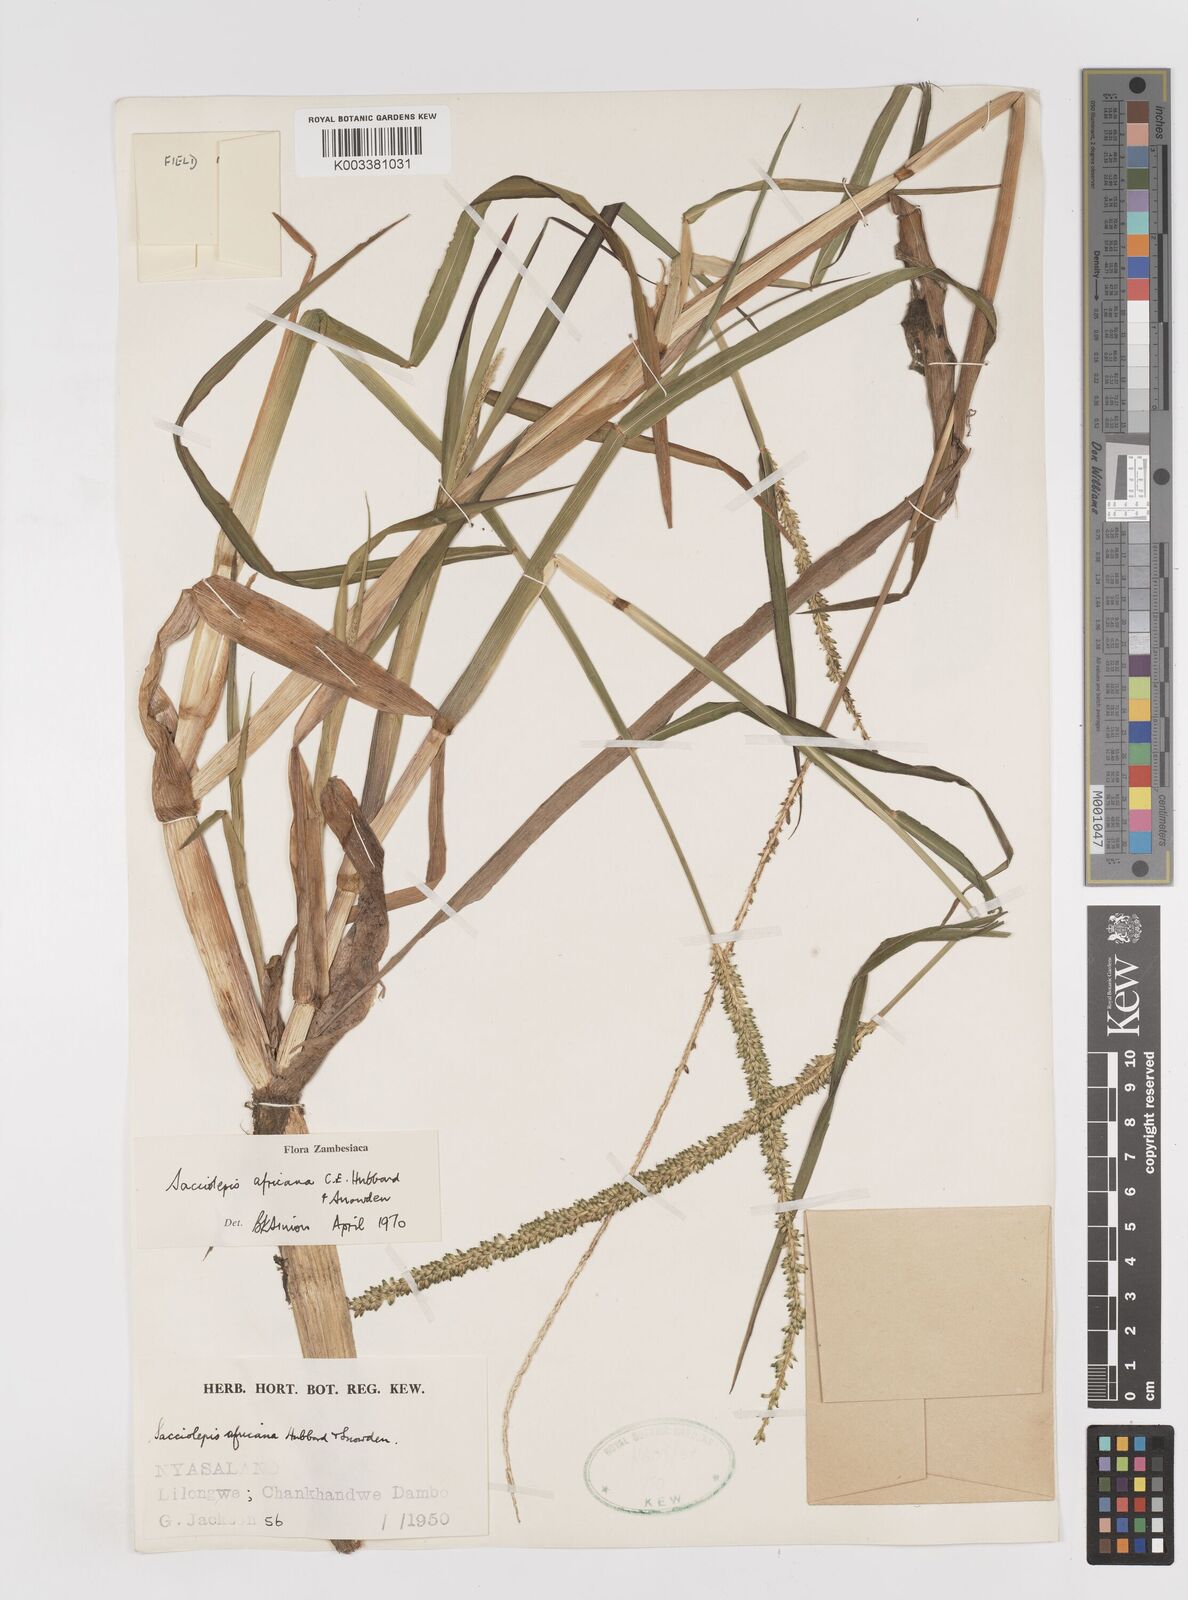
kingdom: Plantae
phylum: Tracheophyta
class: Liliopsida
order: Poales
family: Poaceae
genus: Sacciolepis
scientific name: Sacciolepis africana
